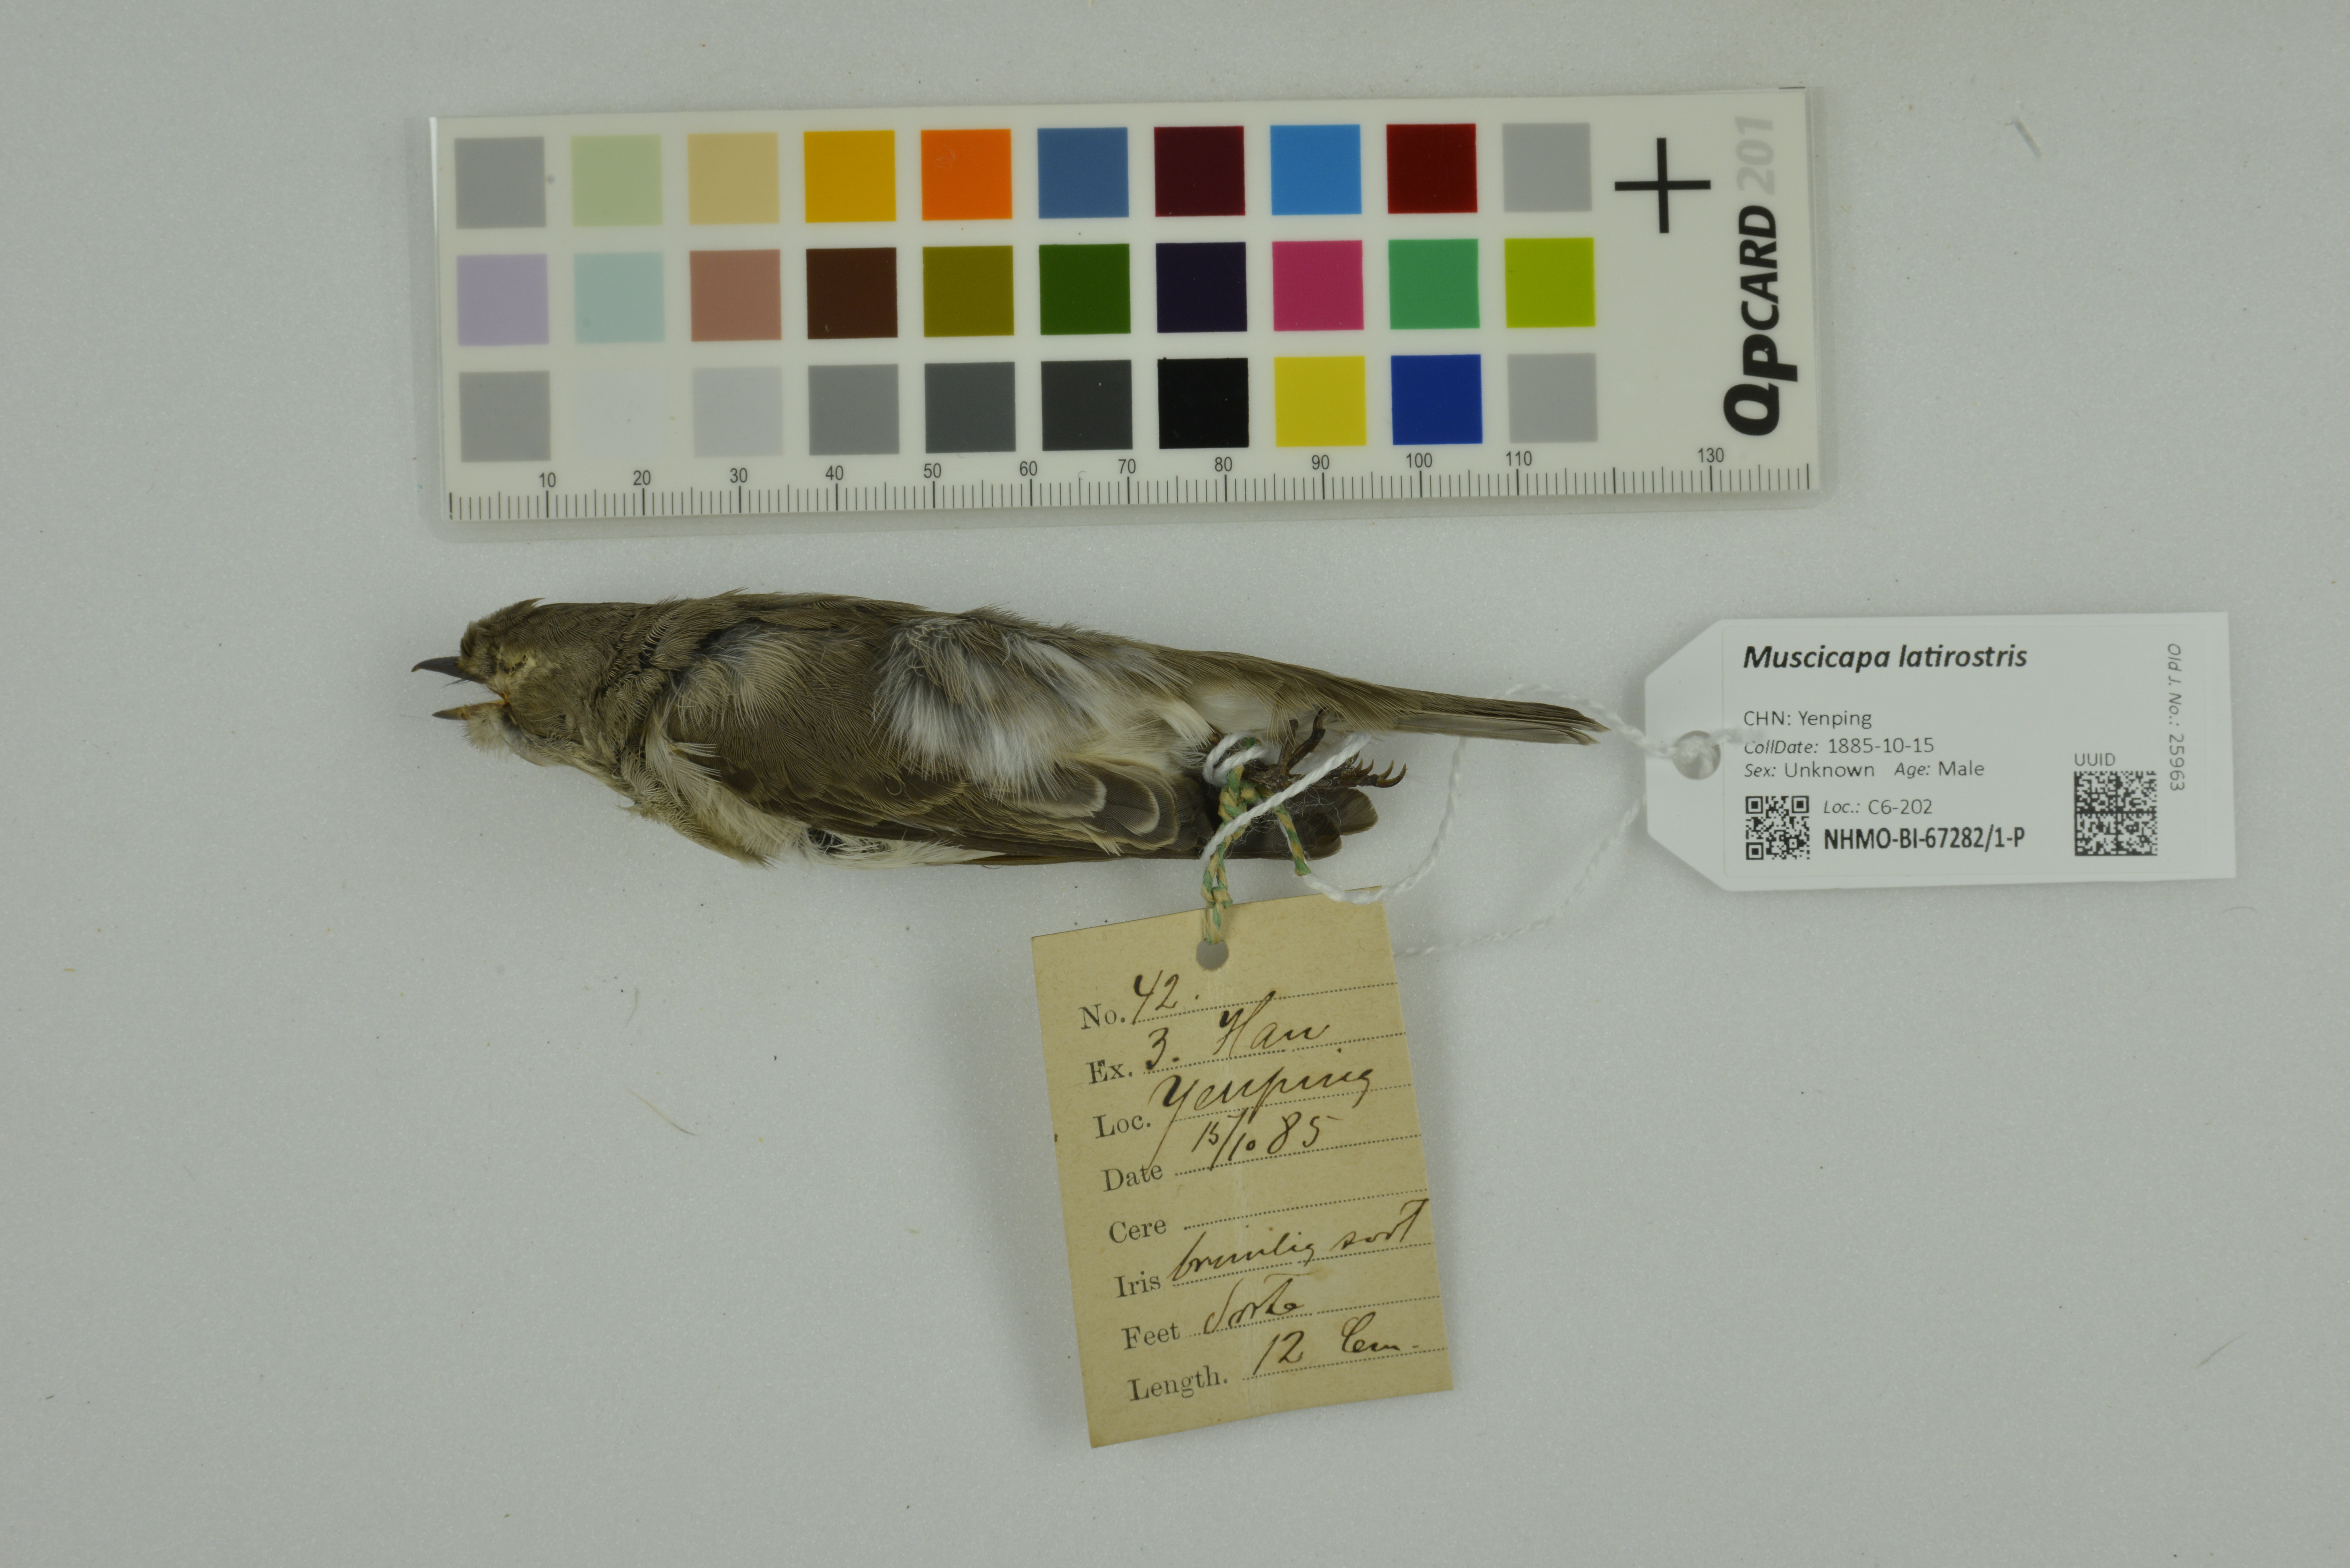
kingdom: Animalia
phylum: Chordata
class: Aves
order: Passeriformes
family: Muscicapidae
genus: Muscicapa
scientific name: Muscicapa latirostris
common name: Asian brown flycatcher
